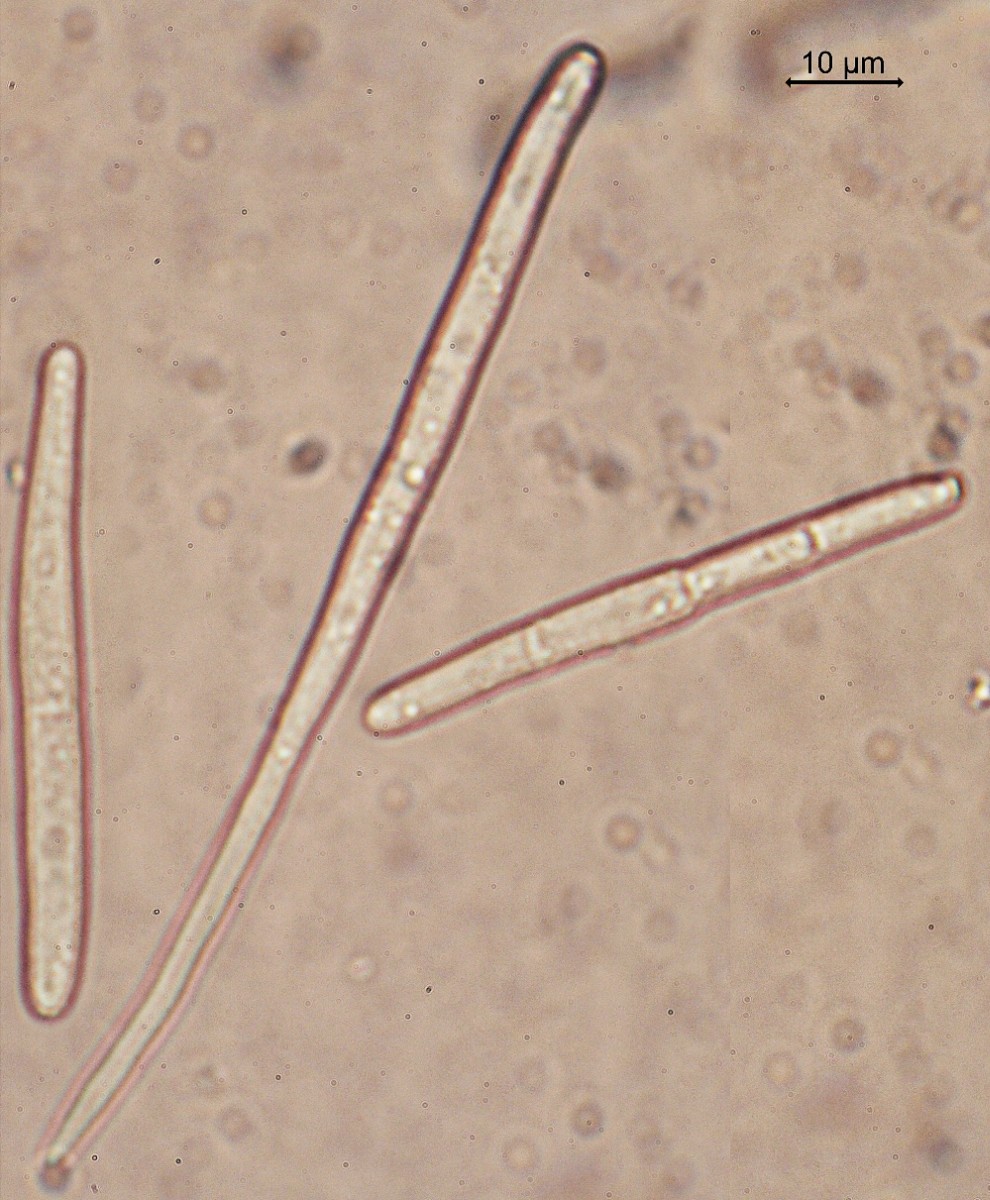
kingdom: Fungi
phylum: Ascomycota
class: Dothideomycetes
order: Mycosphaerellales
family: Mycosphaerellaceae
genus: Cercospora
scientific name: Cercospora armoraciae
